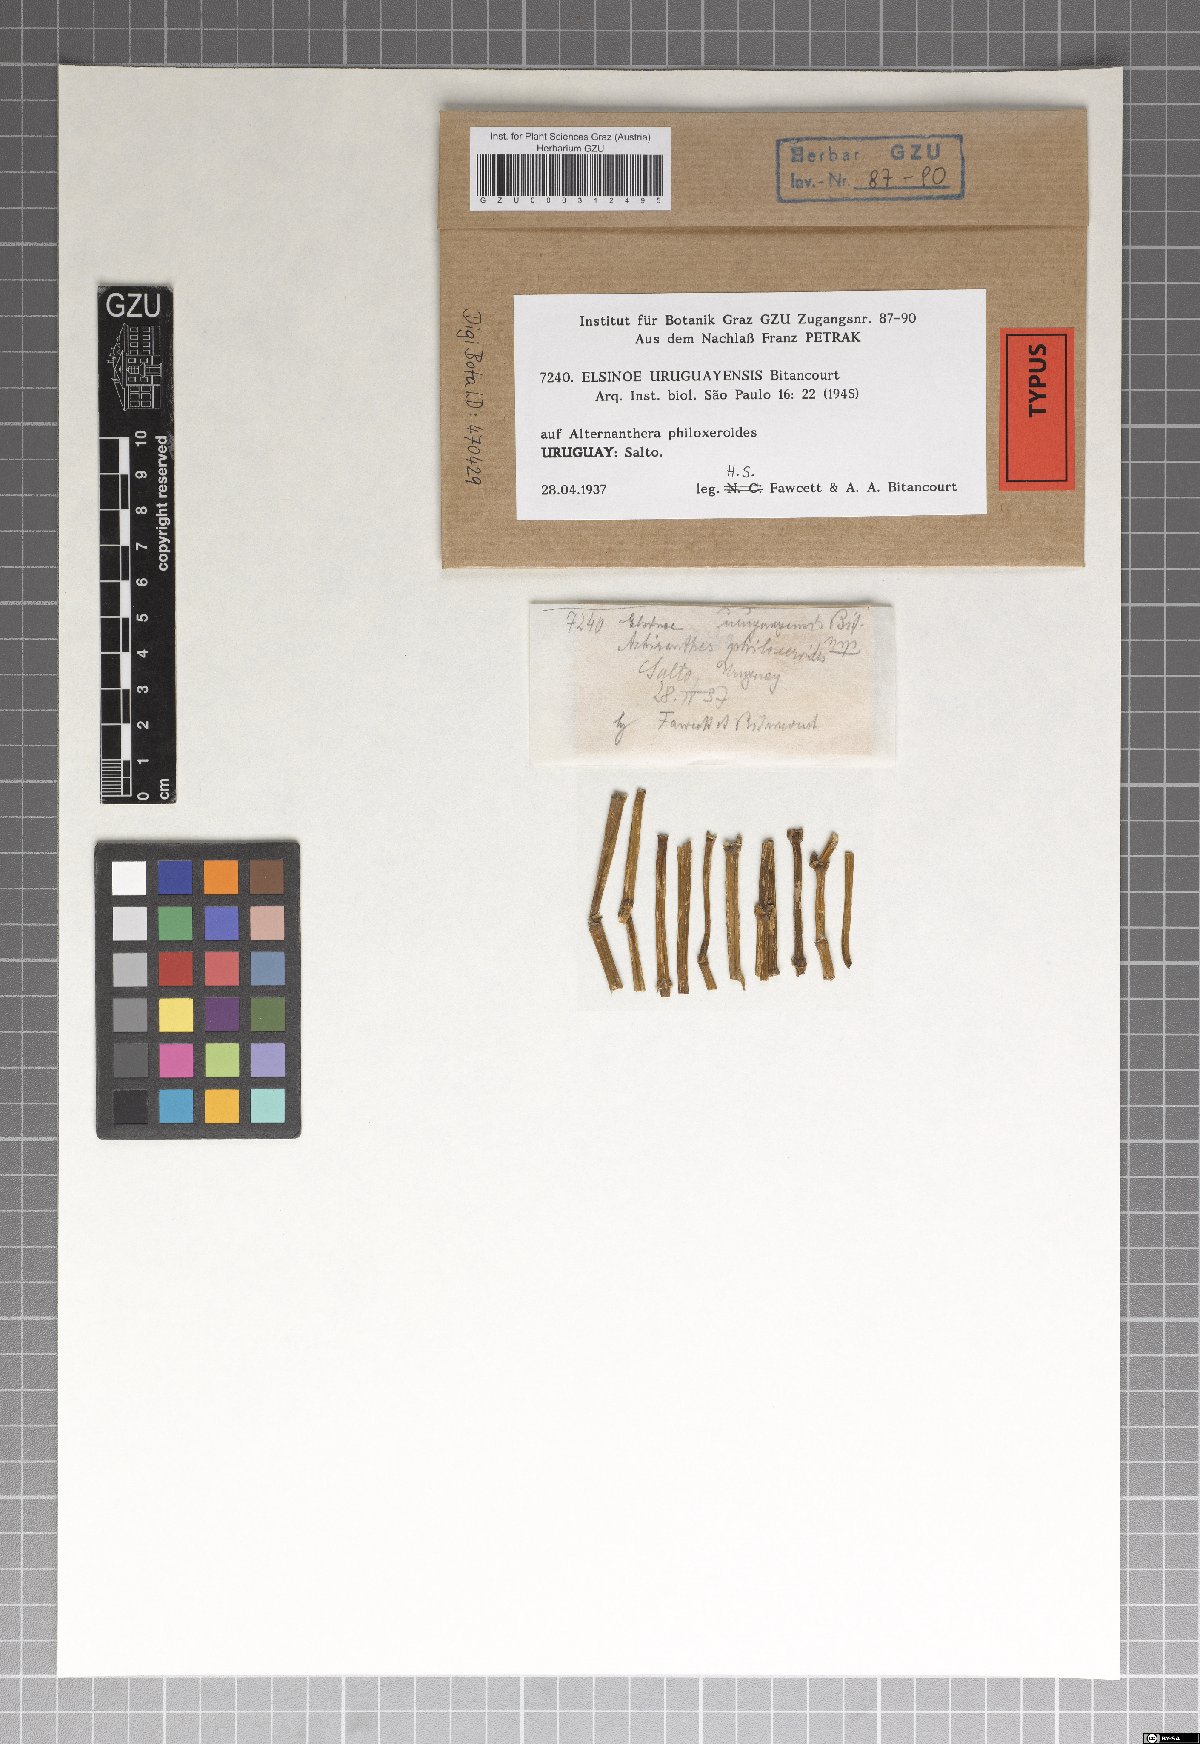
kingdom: Fungi
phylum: Ascomycota
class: Dothideomycetes
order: Myriangiales
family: Elsinoaceae
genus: Elsinoe
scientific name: Elsinoe uruguayensis
